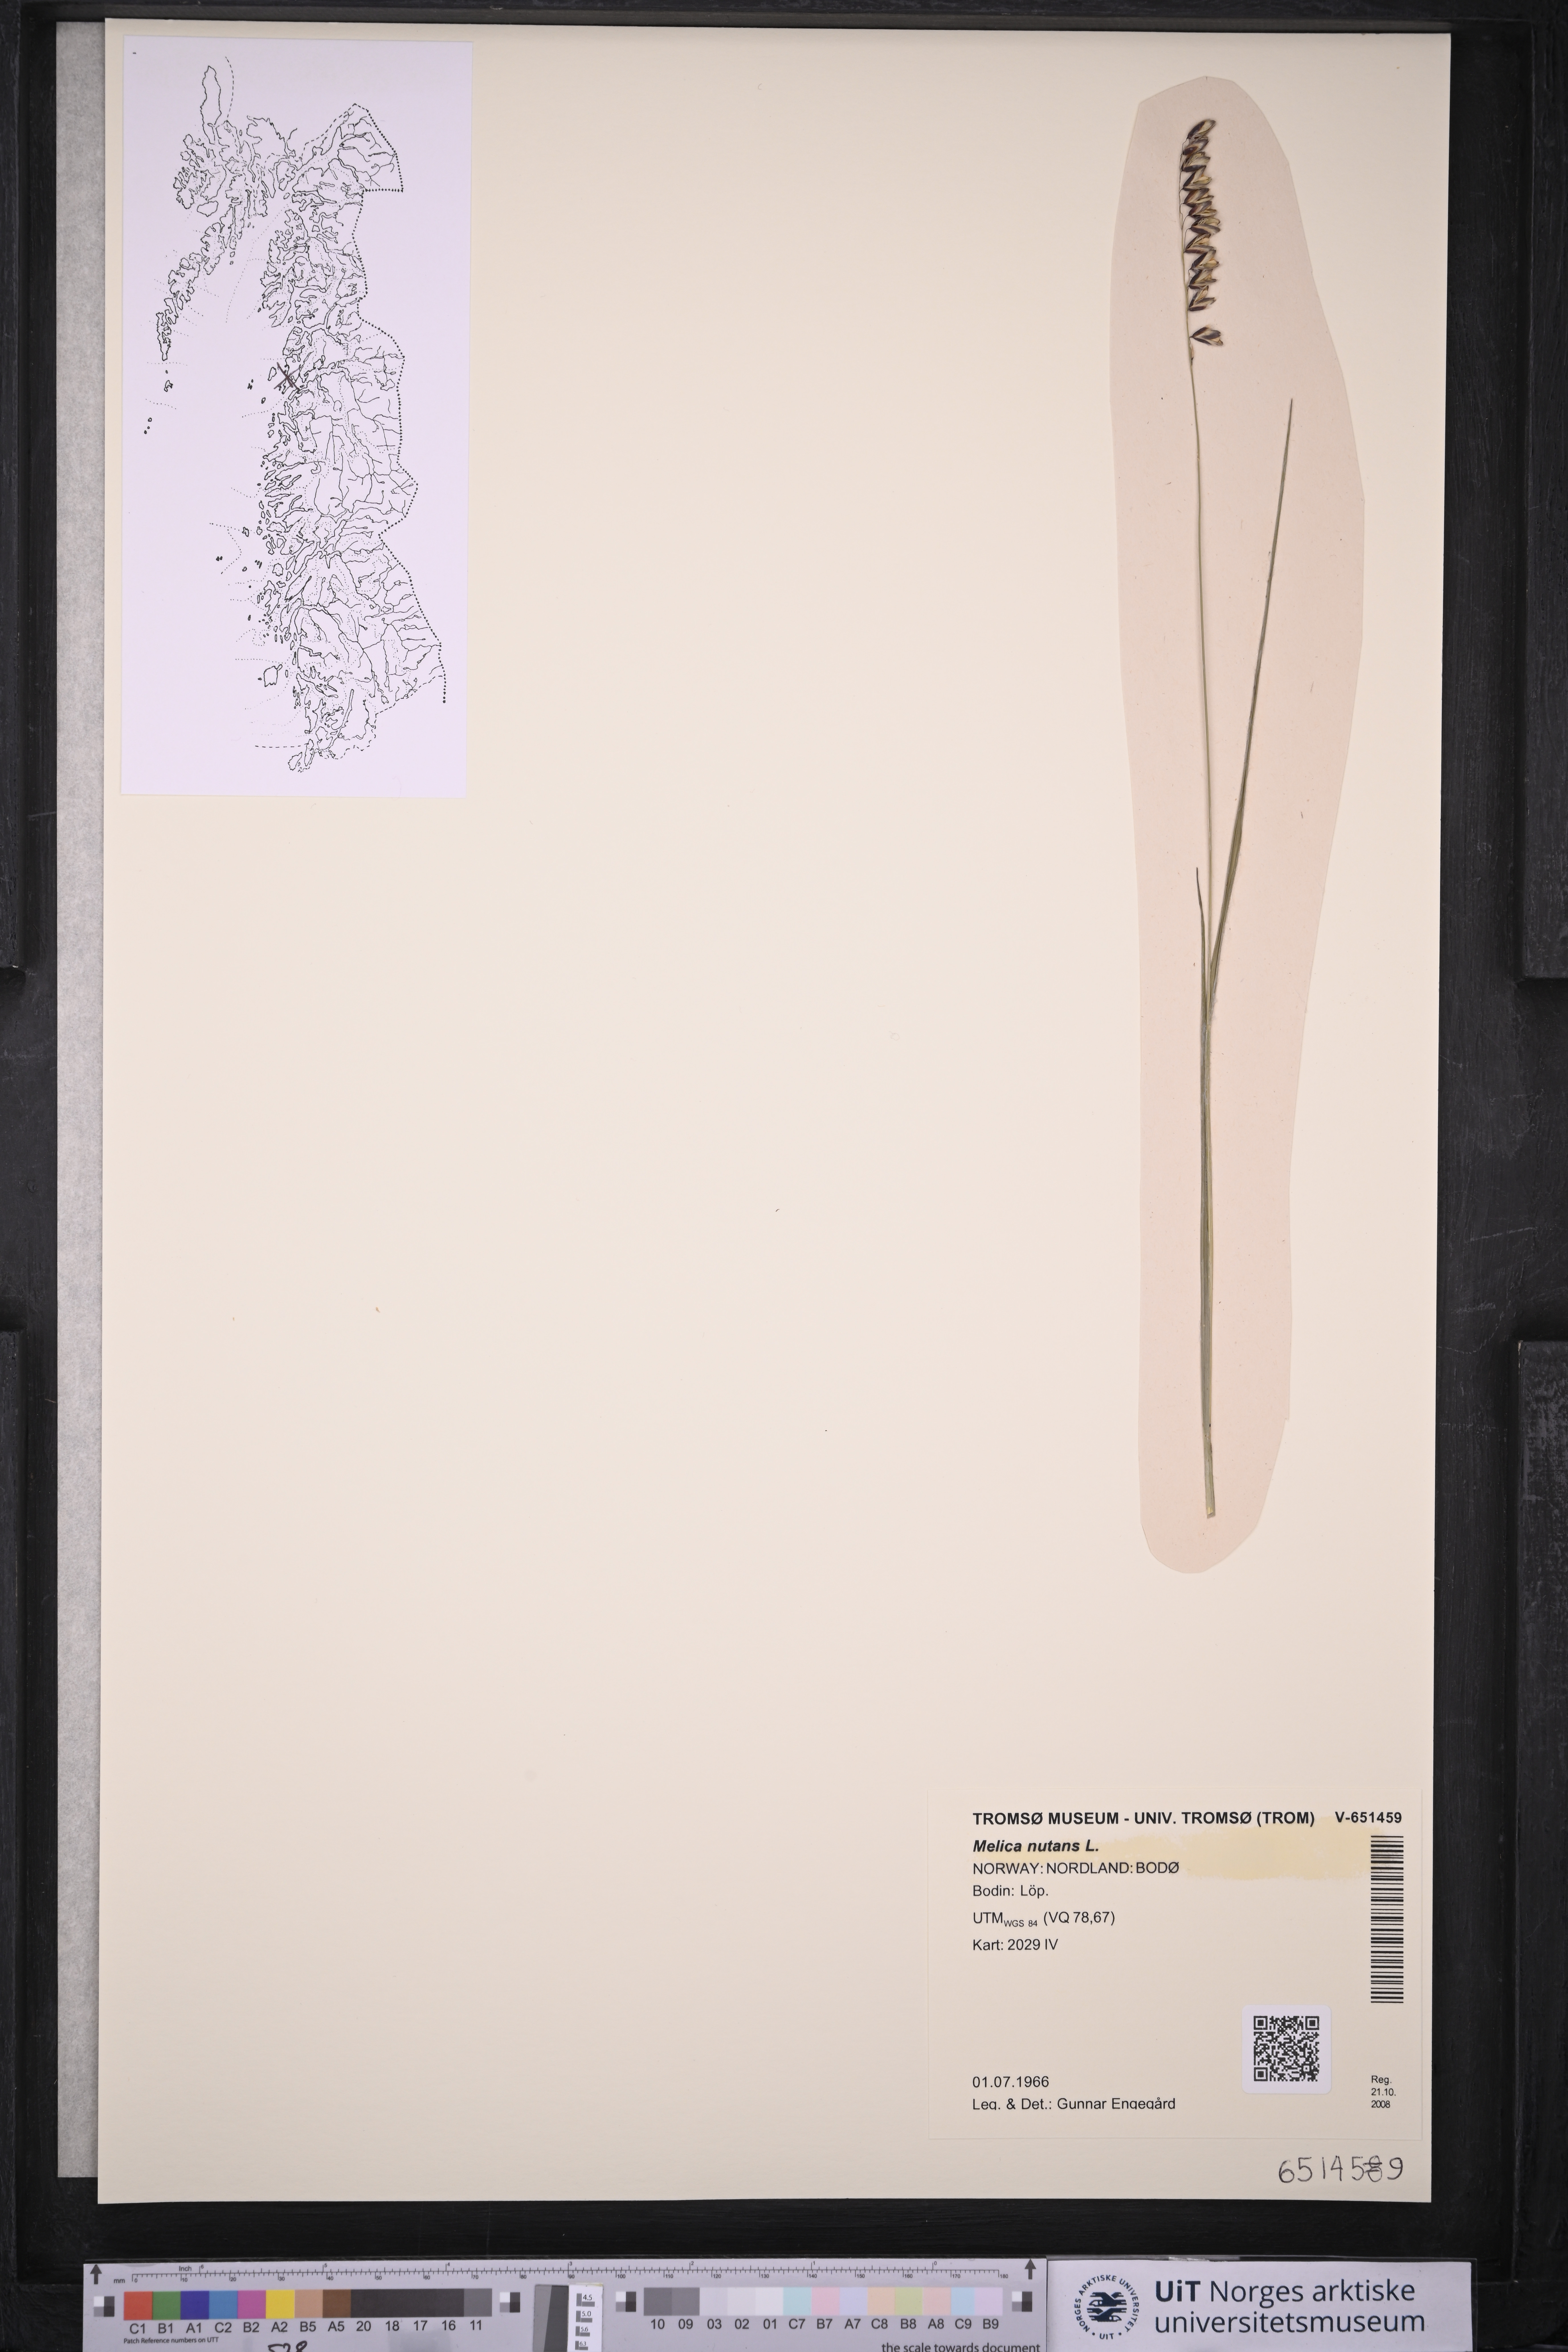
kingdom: Plantae
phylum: Tracheophyta
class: Liliopsida
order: Poales
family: Poaceae
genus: Melica
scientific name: Melica nutans
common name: Mountain melick
